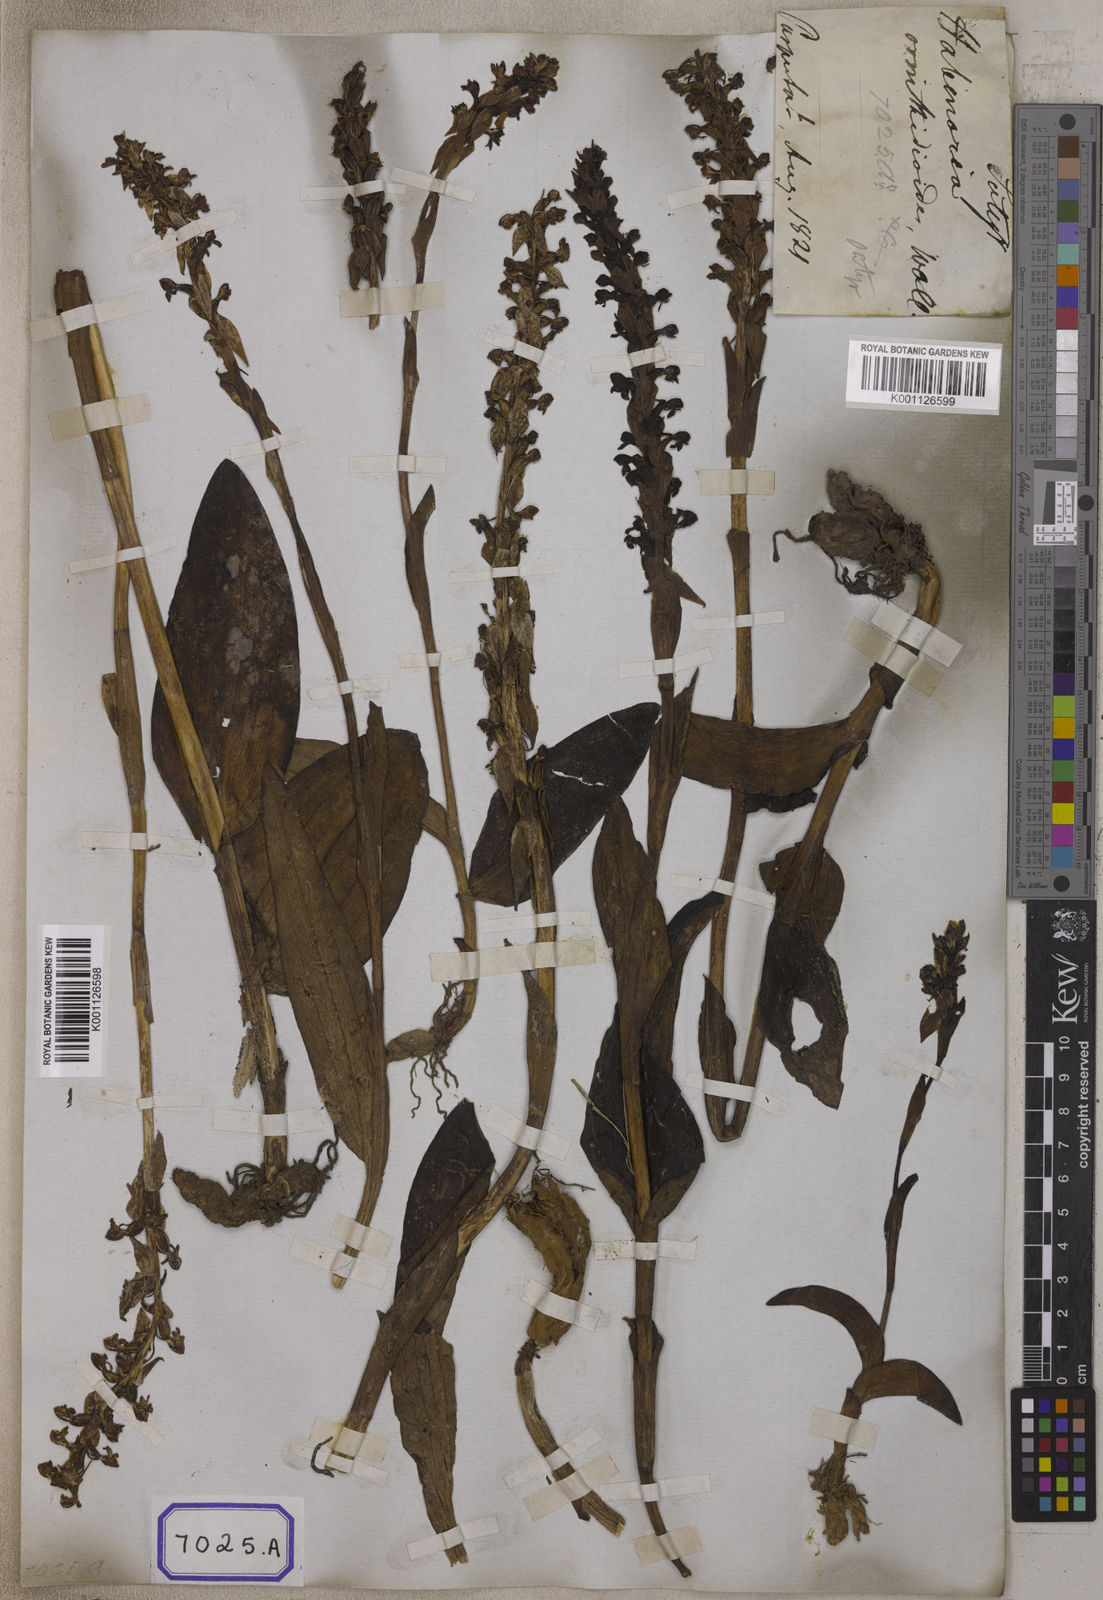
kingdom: Plantae
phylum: Tracheophyta
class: Liliopsida
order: Asparagales
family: Orchidaceae
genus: Satyrium
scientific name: Satyrium nepalense
